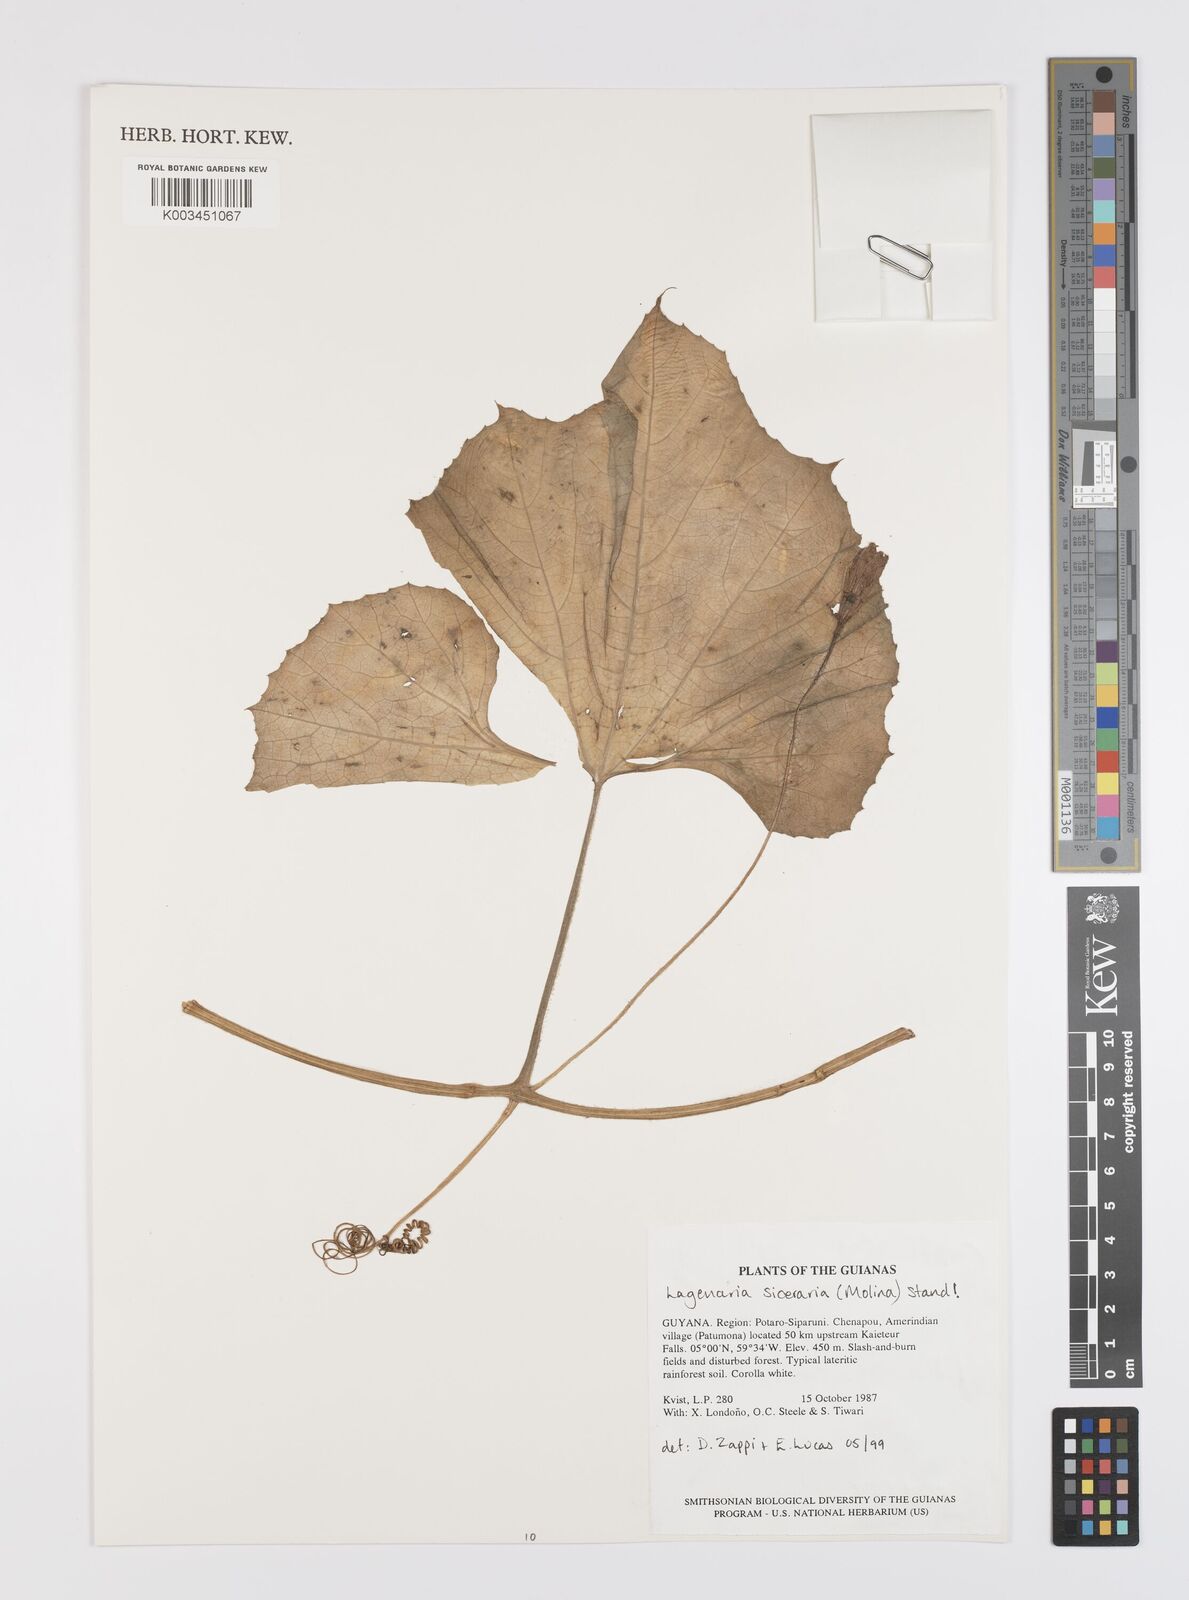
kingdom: Plantae
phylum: Tracheophyta
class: Magnoliopsida
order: Cucurbitales
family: Cucurbitaceae
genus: Lagenaria
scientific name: Lagenaria siceraria
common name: Bottle gourd
